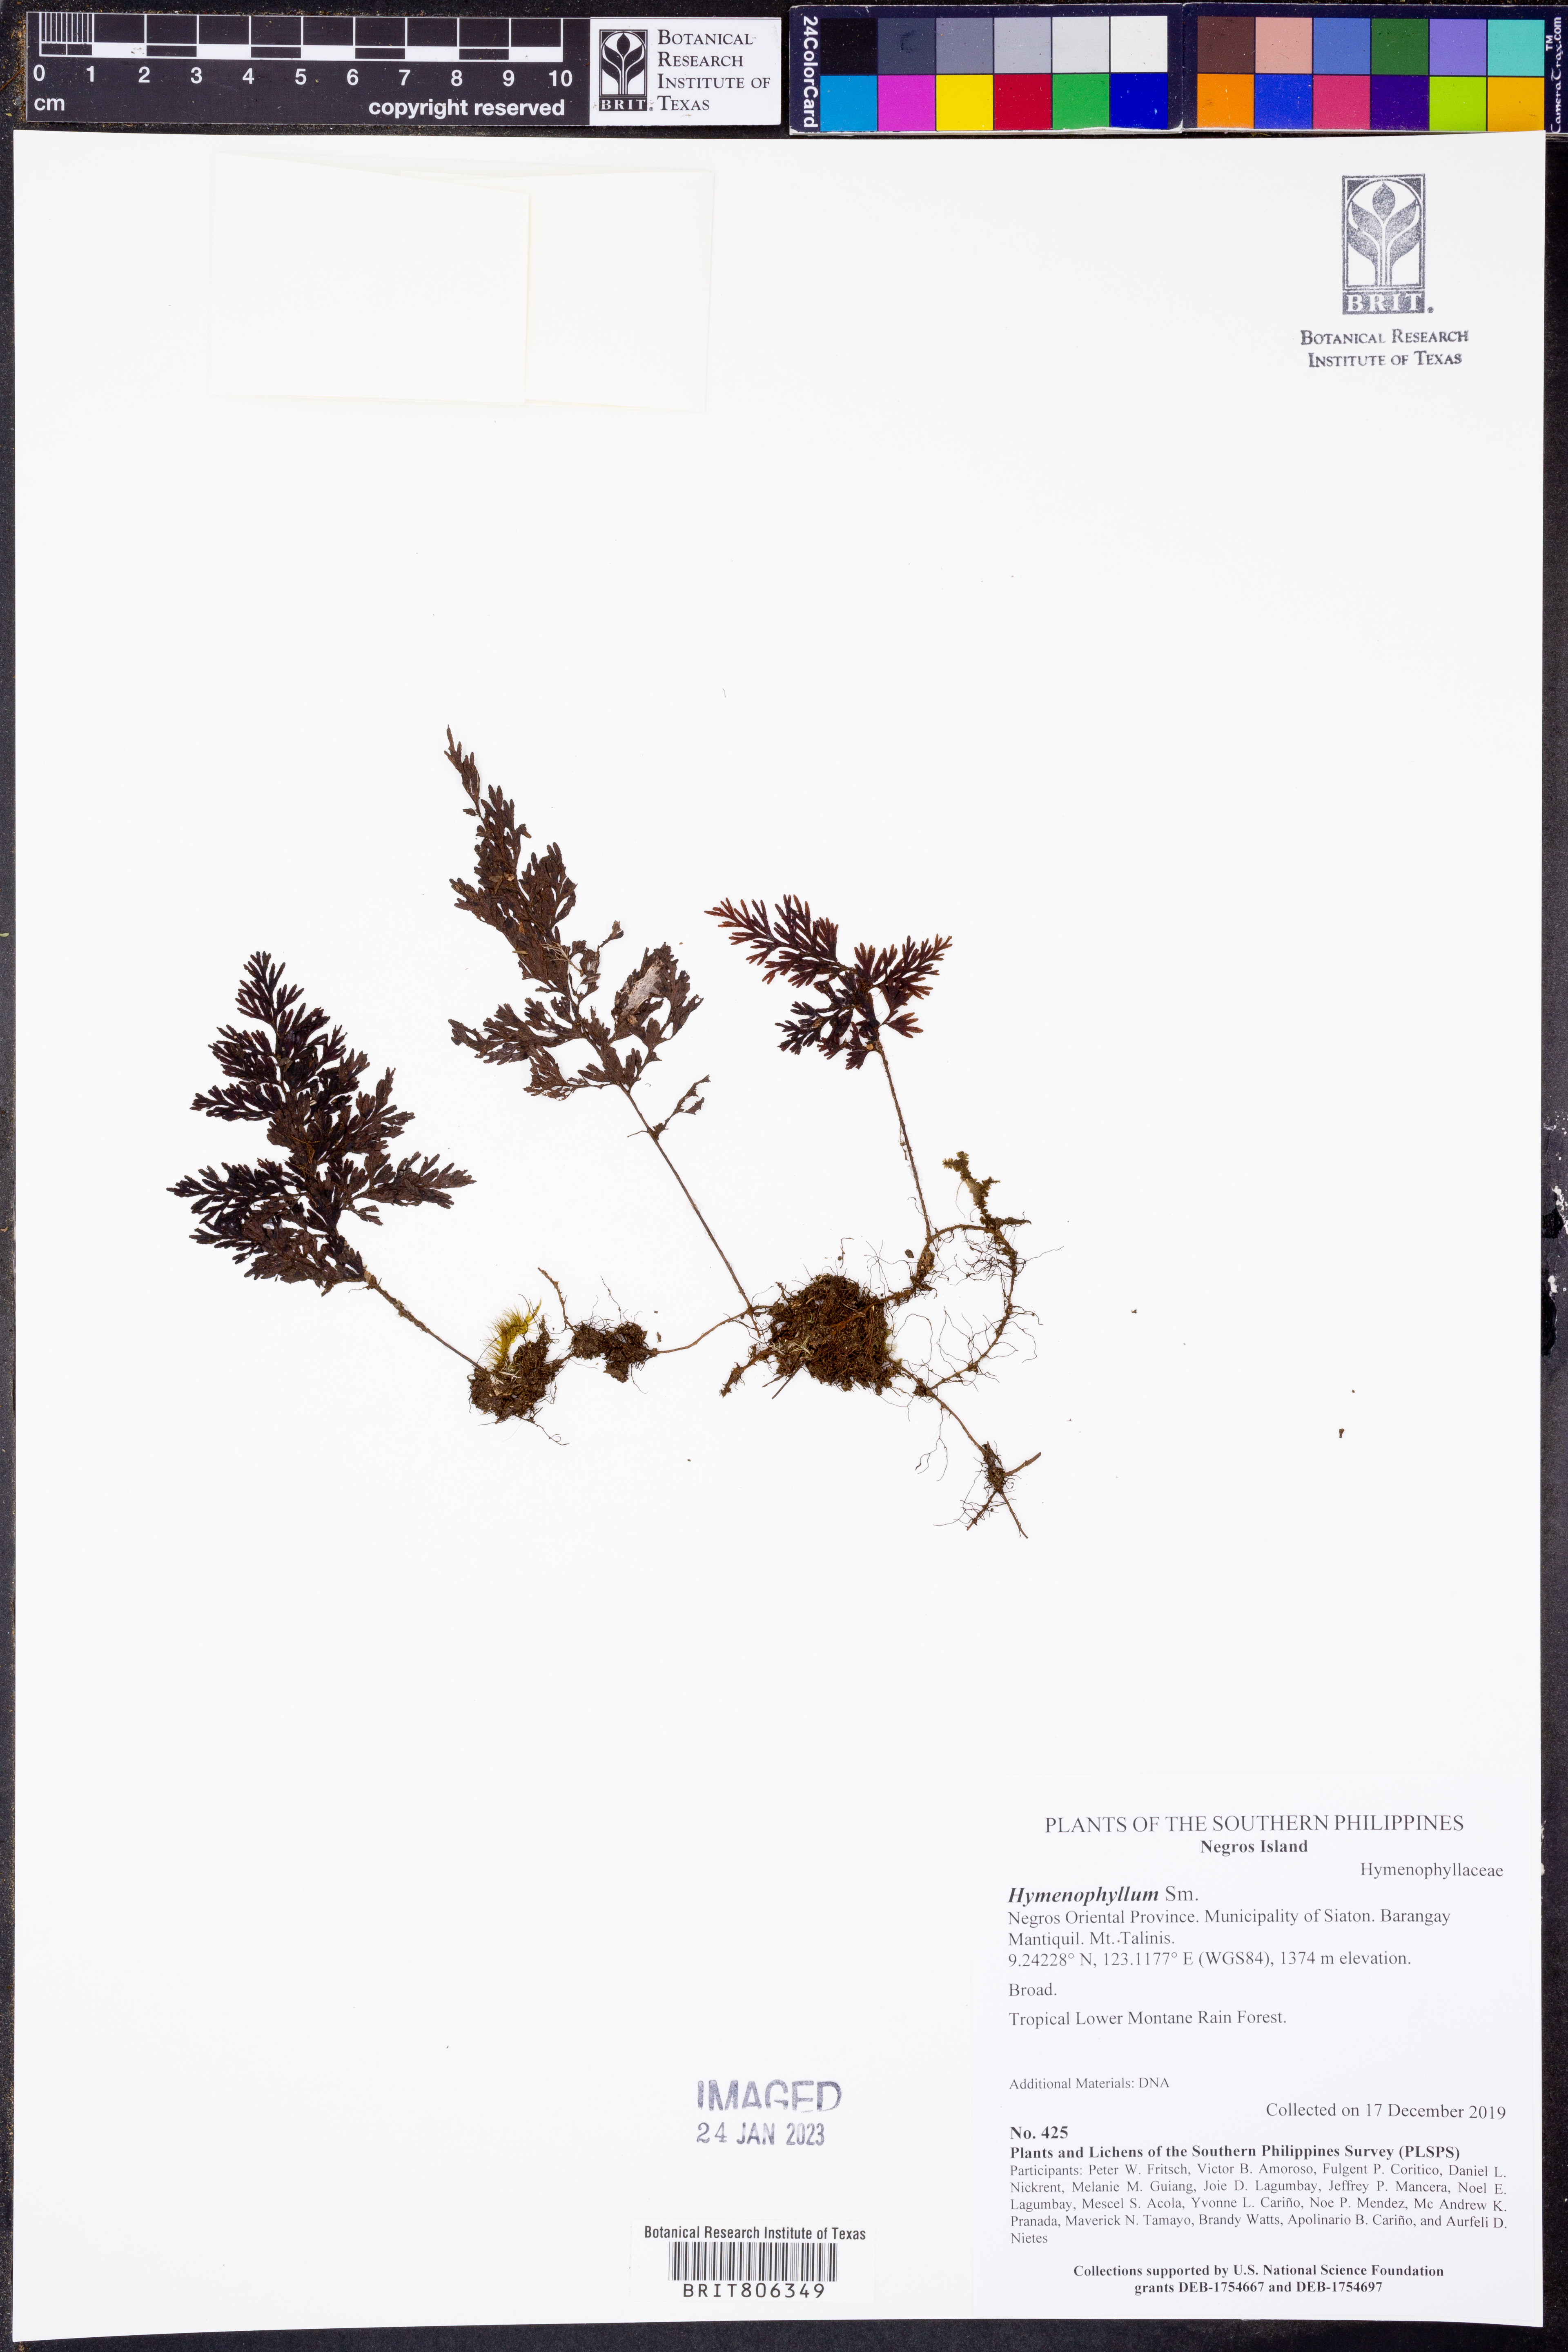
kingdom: Plantae
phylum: Tracheophyta
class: Polypodiopsida
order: Hymenophyllales
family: Hymenophyllaceae
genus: Hymenophyllum
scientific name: Hymenophyllum
